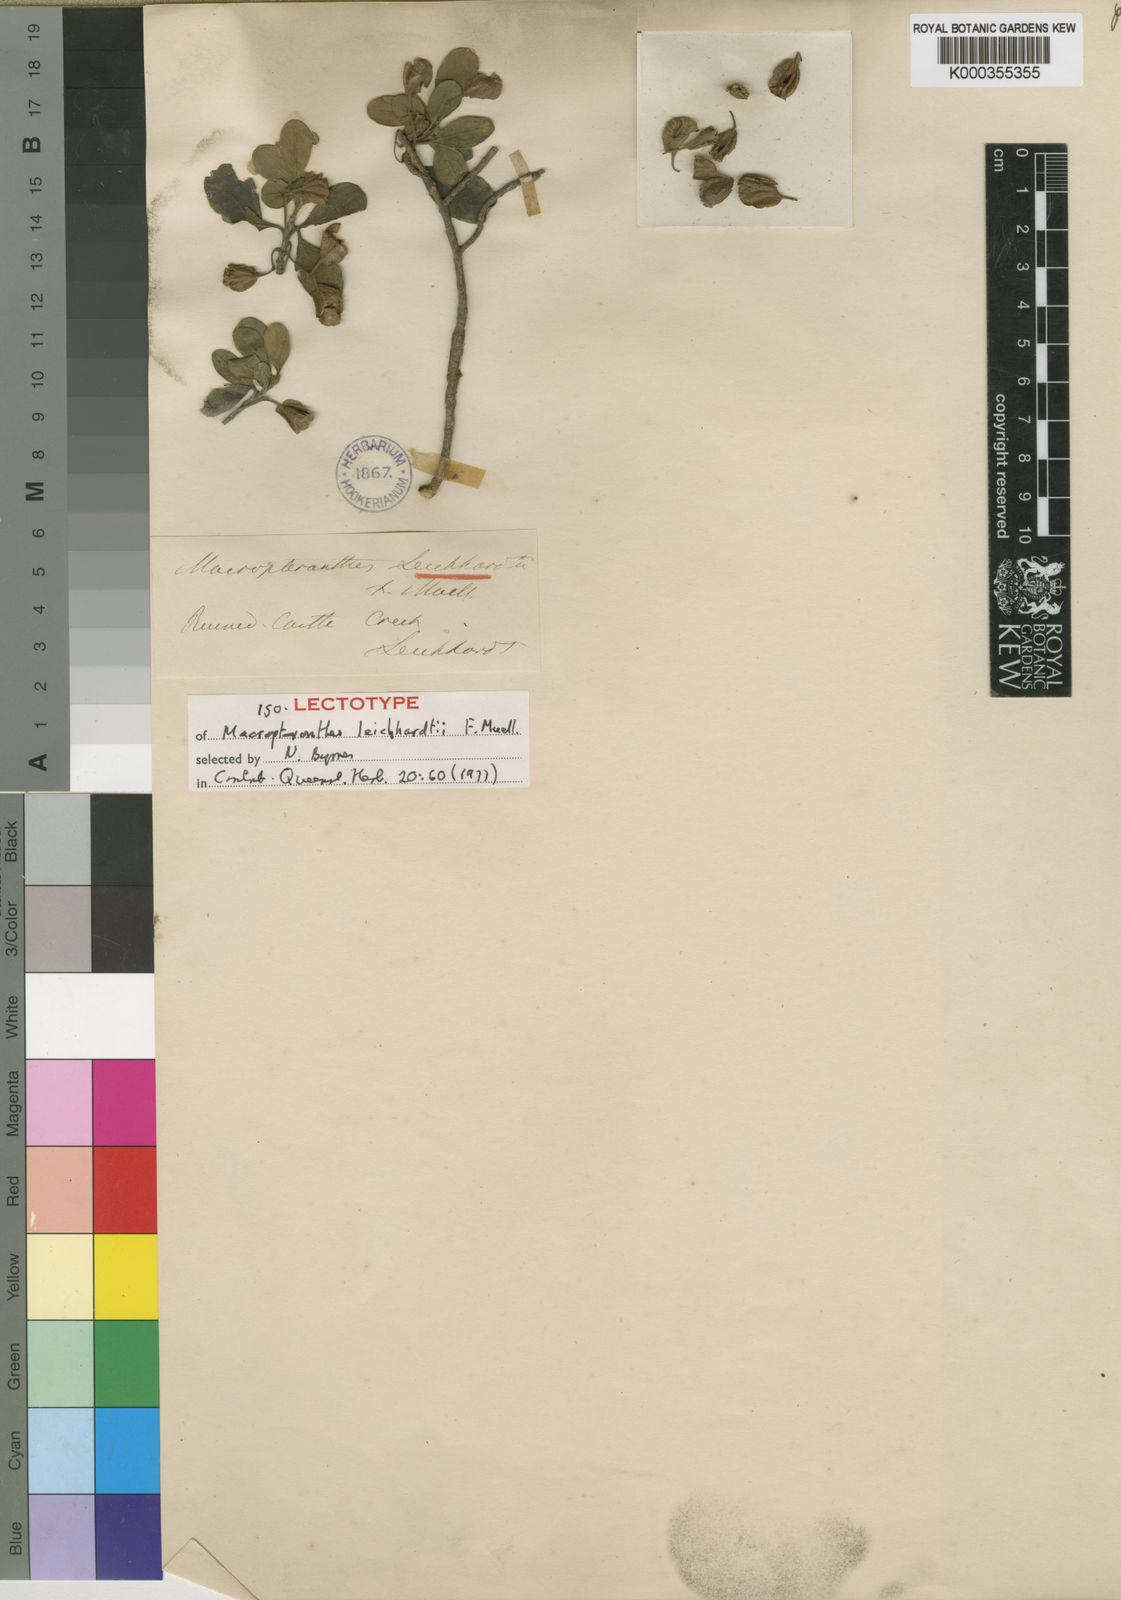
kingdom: Plantae
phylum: Tracheophyta
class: Magnoliopsida
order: Myrtales
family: Combretaceae
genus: Macropteranthes
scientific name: Macropteranthes leichhardtii
